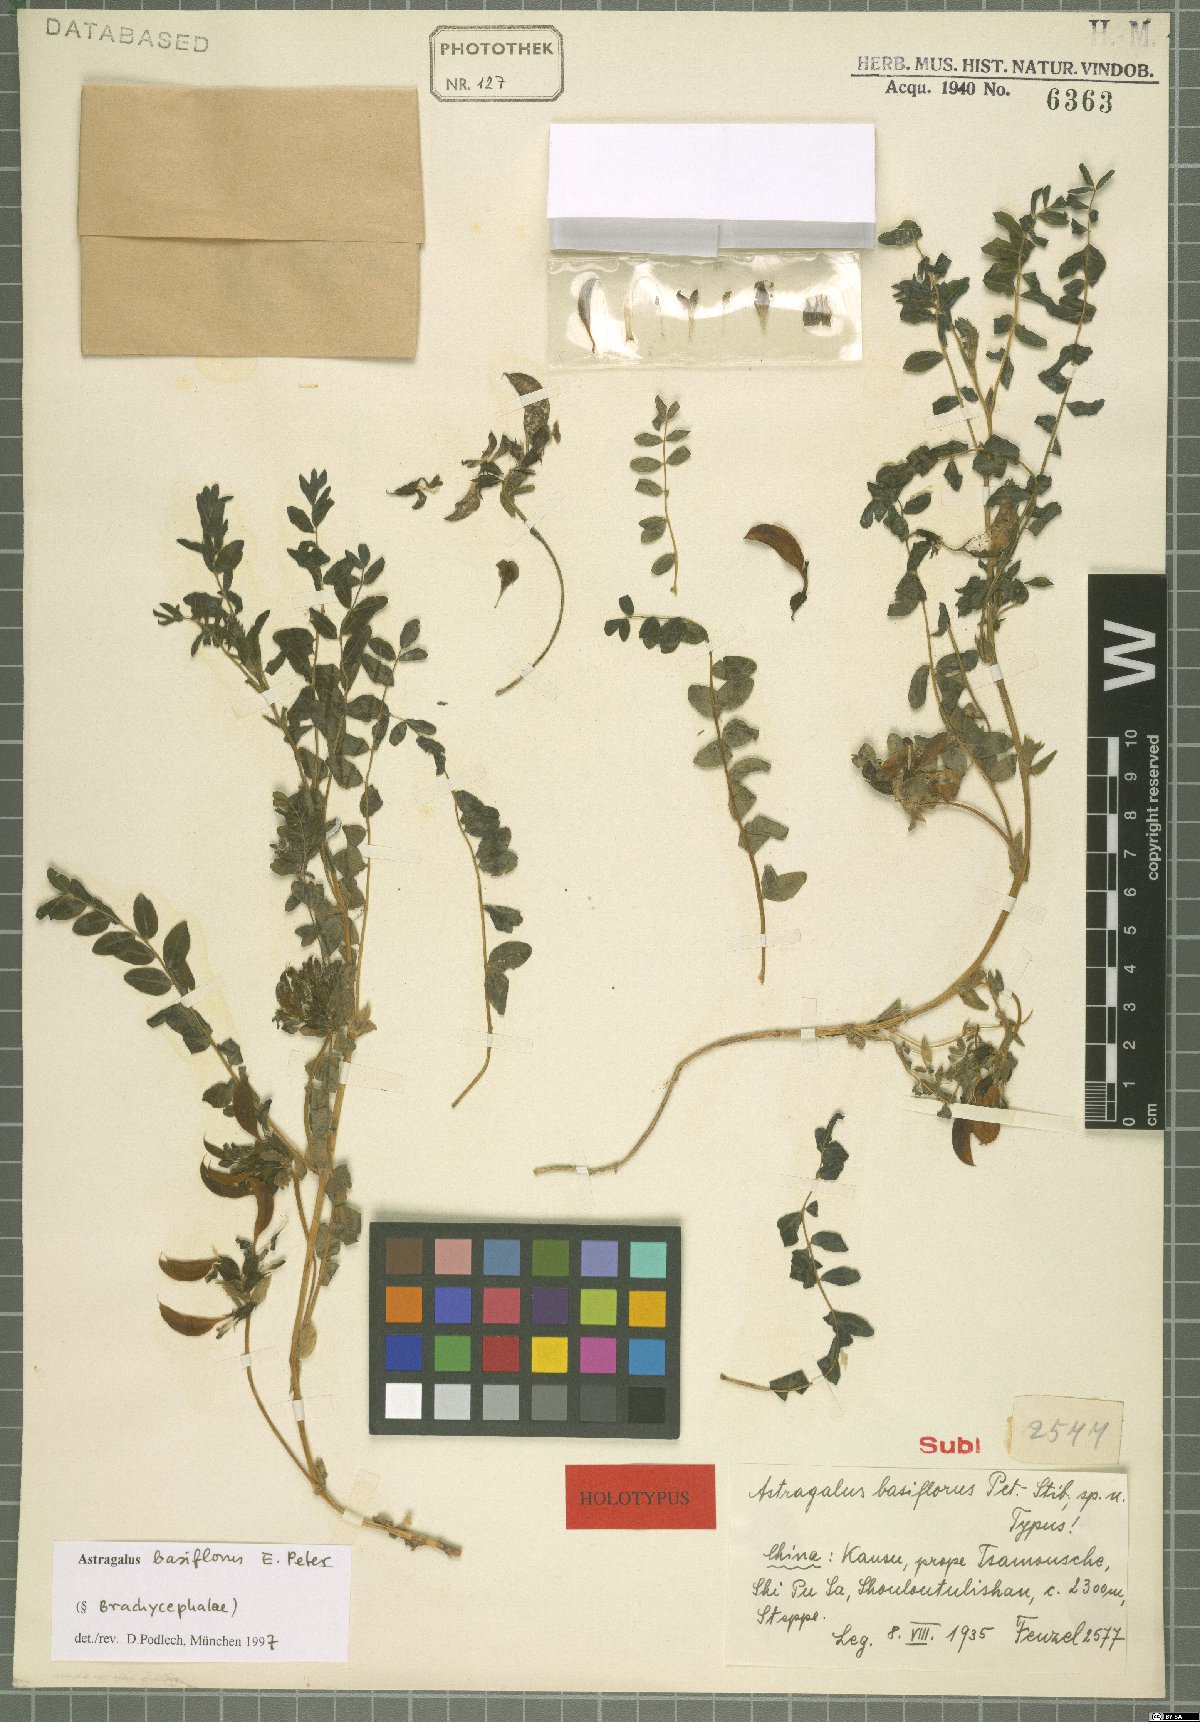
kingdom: Plantae
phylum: Tracheophyta
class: Magnoliopsida
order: Fabales
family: Fabaceae
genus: Astragalus
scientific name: Astragalus basiflorus
